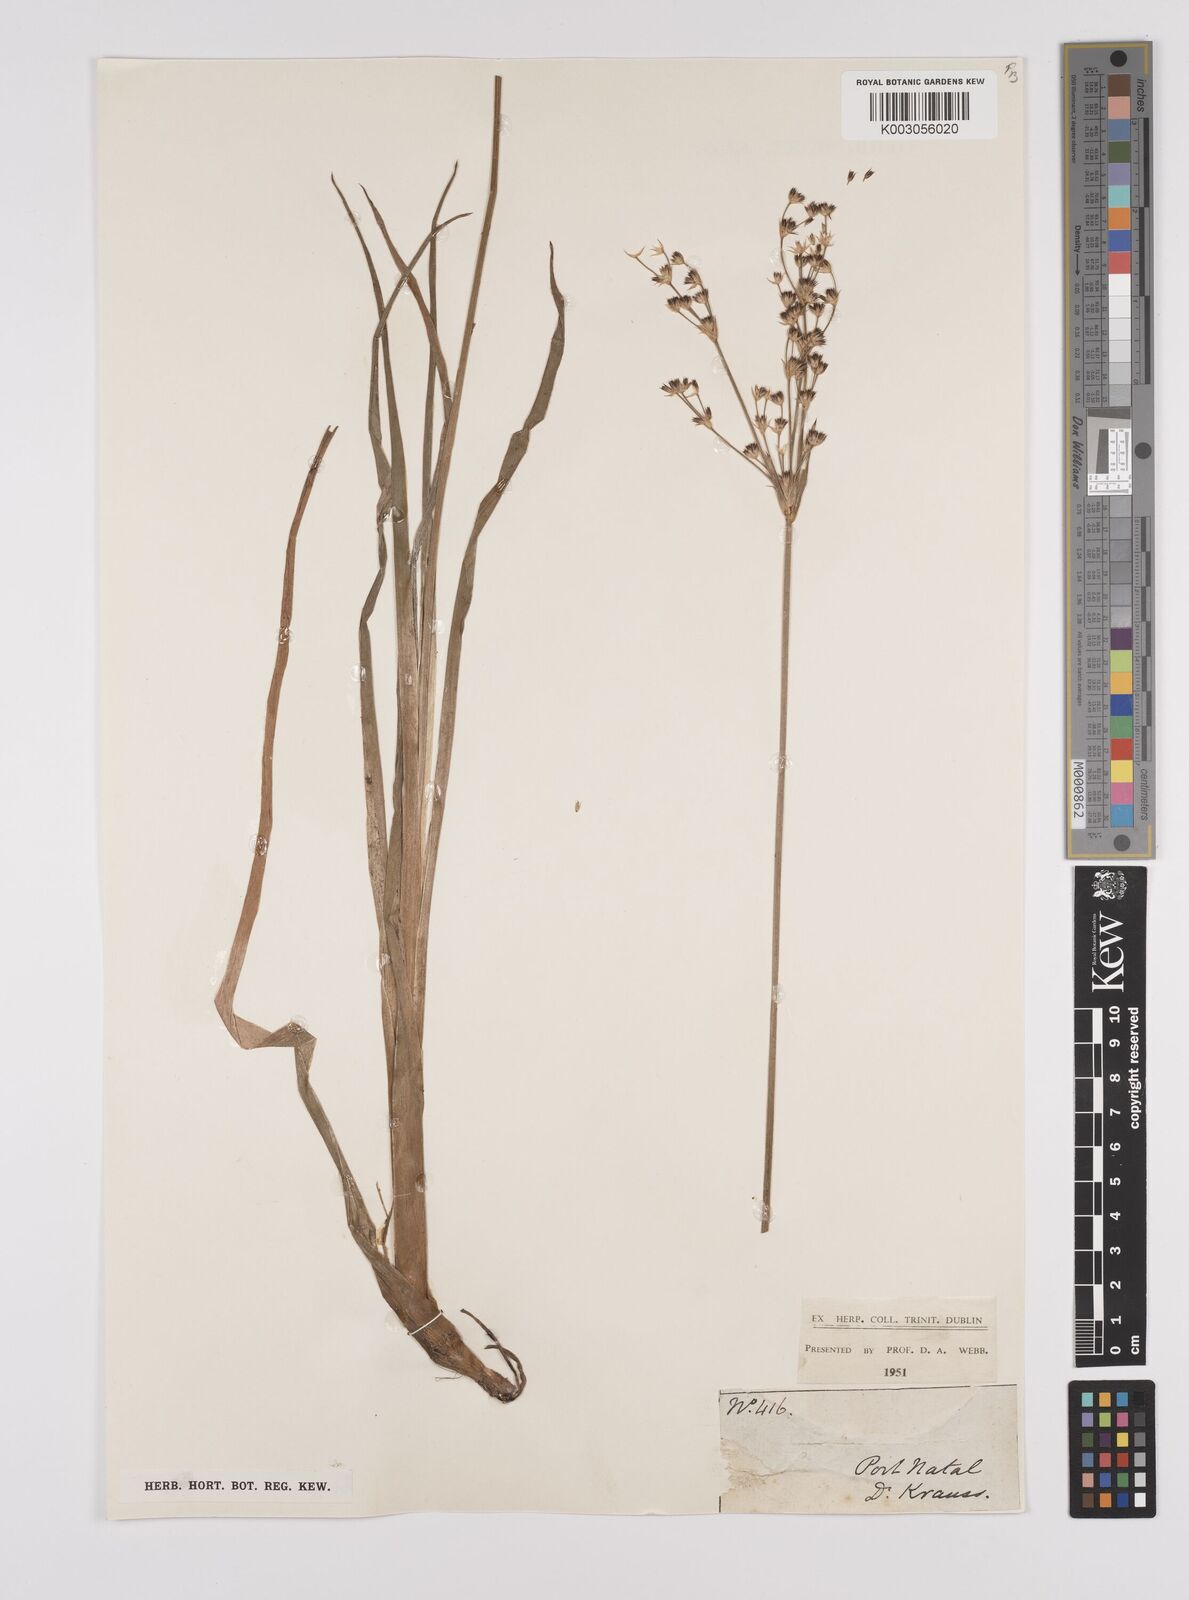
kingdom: Plantae
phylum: Tracheophyta
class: Liliopsida
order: Poales
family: Juncaceae
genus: Juncus
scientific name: Juncus lomatophyllus
